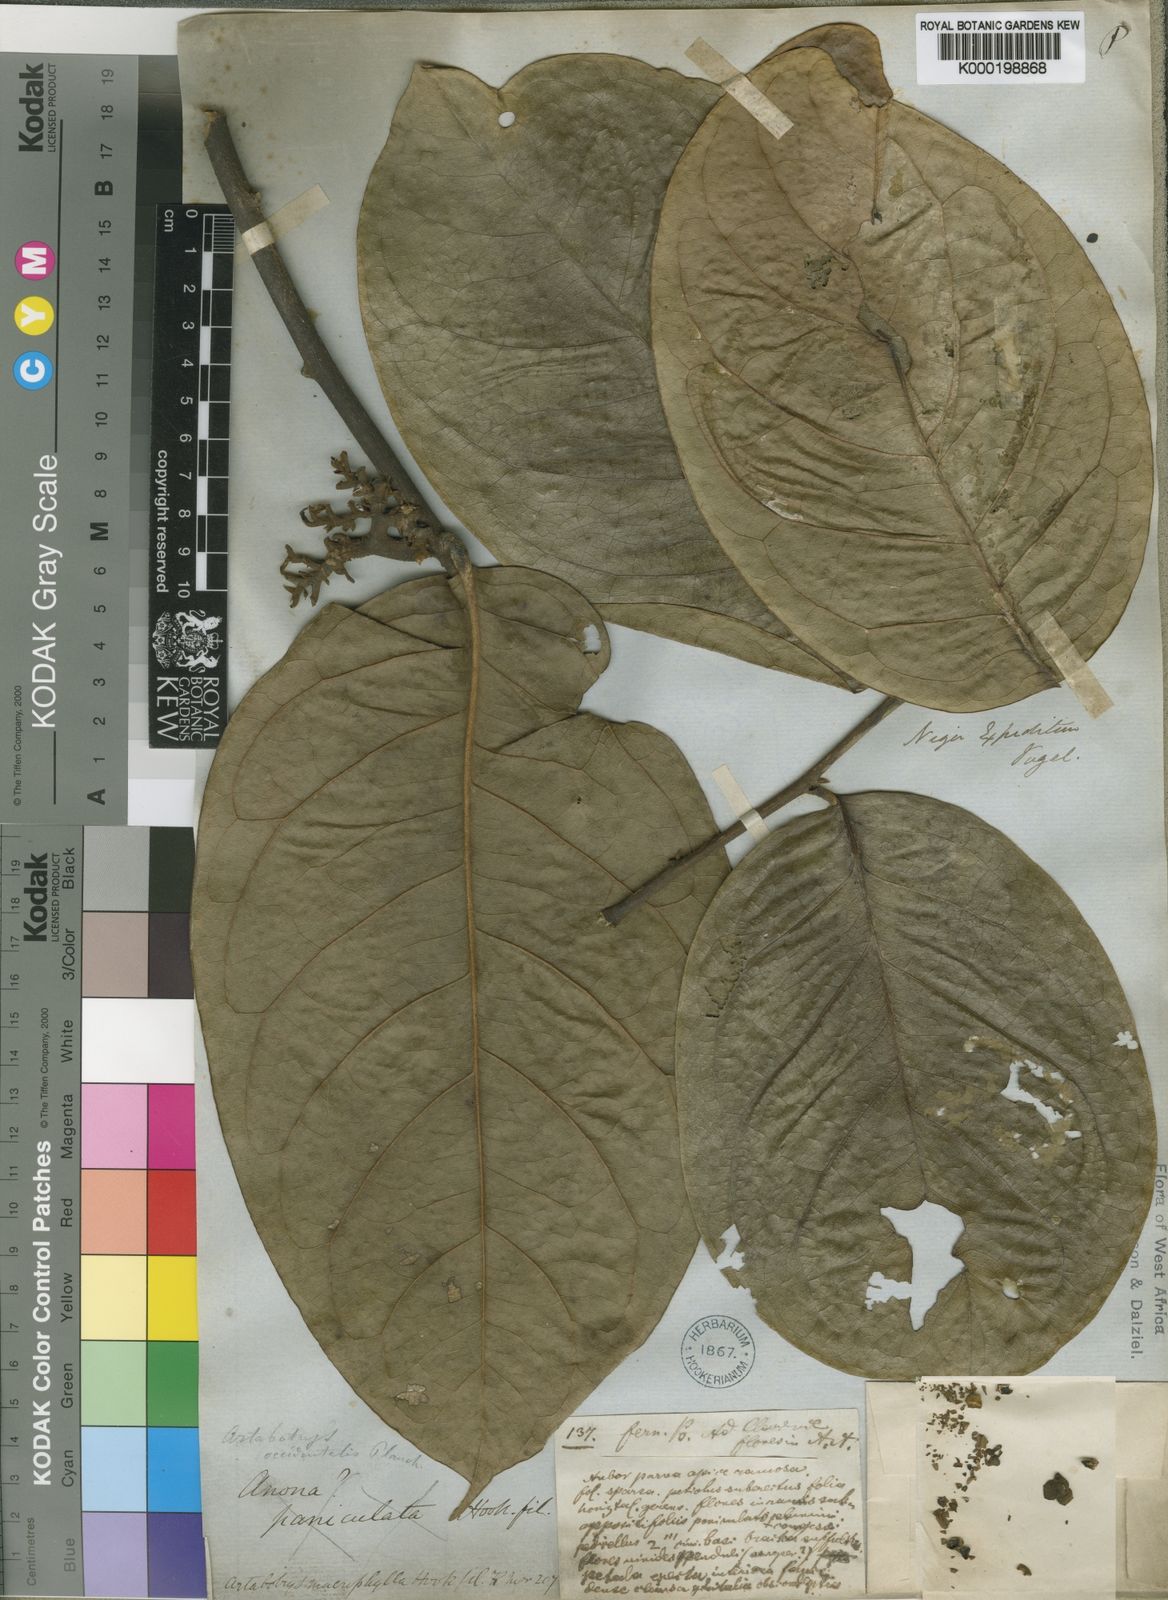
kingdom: Plantae
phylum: Tracheophyta
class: Magnoliopsida
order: Magnoliales
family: Annonaceae
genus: Artabotrys
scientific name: Artabotrys macrophyllus
